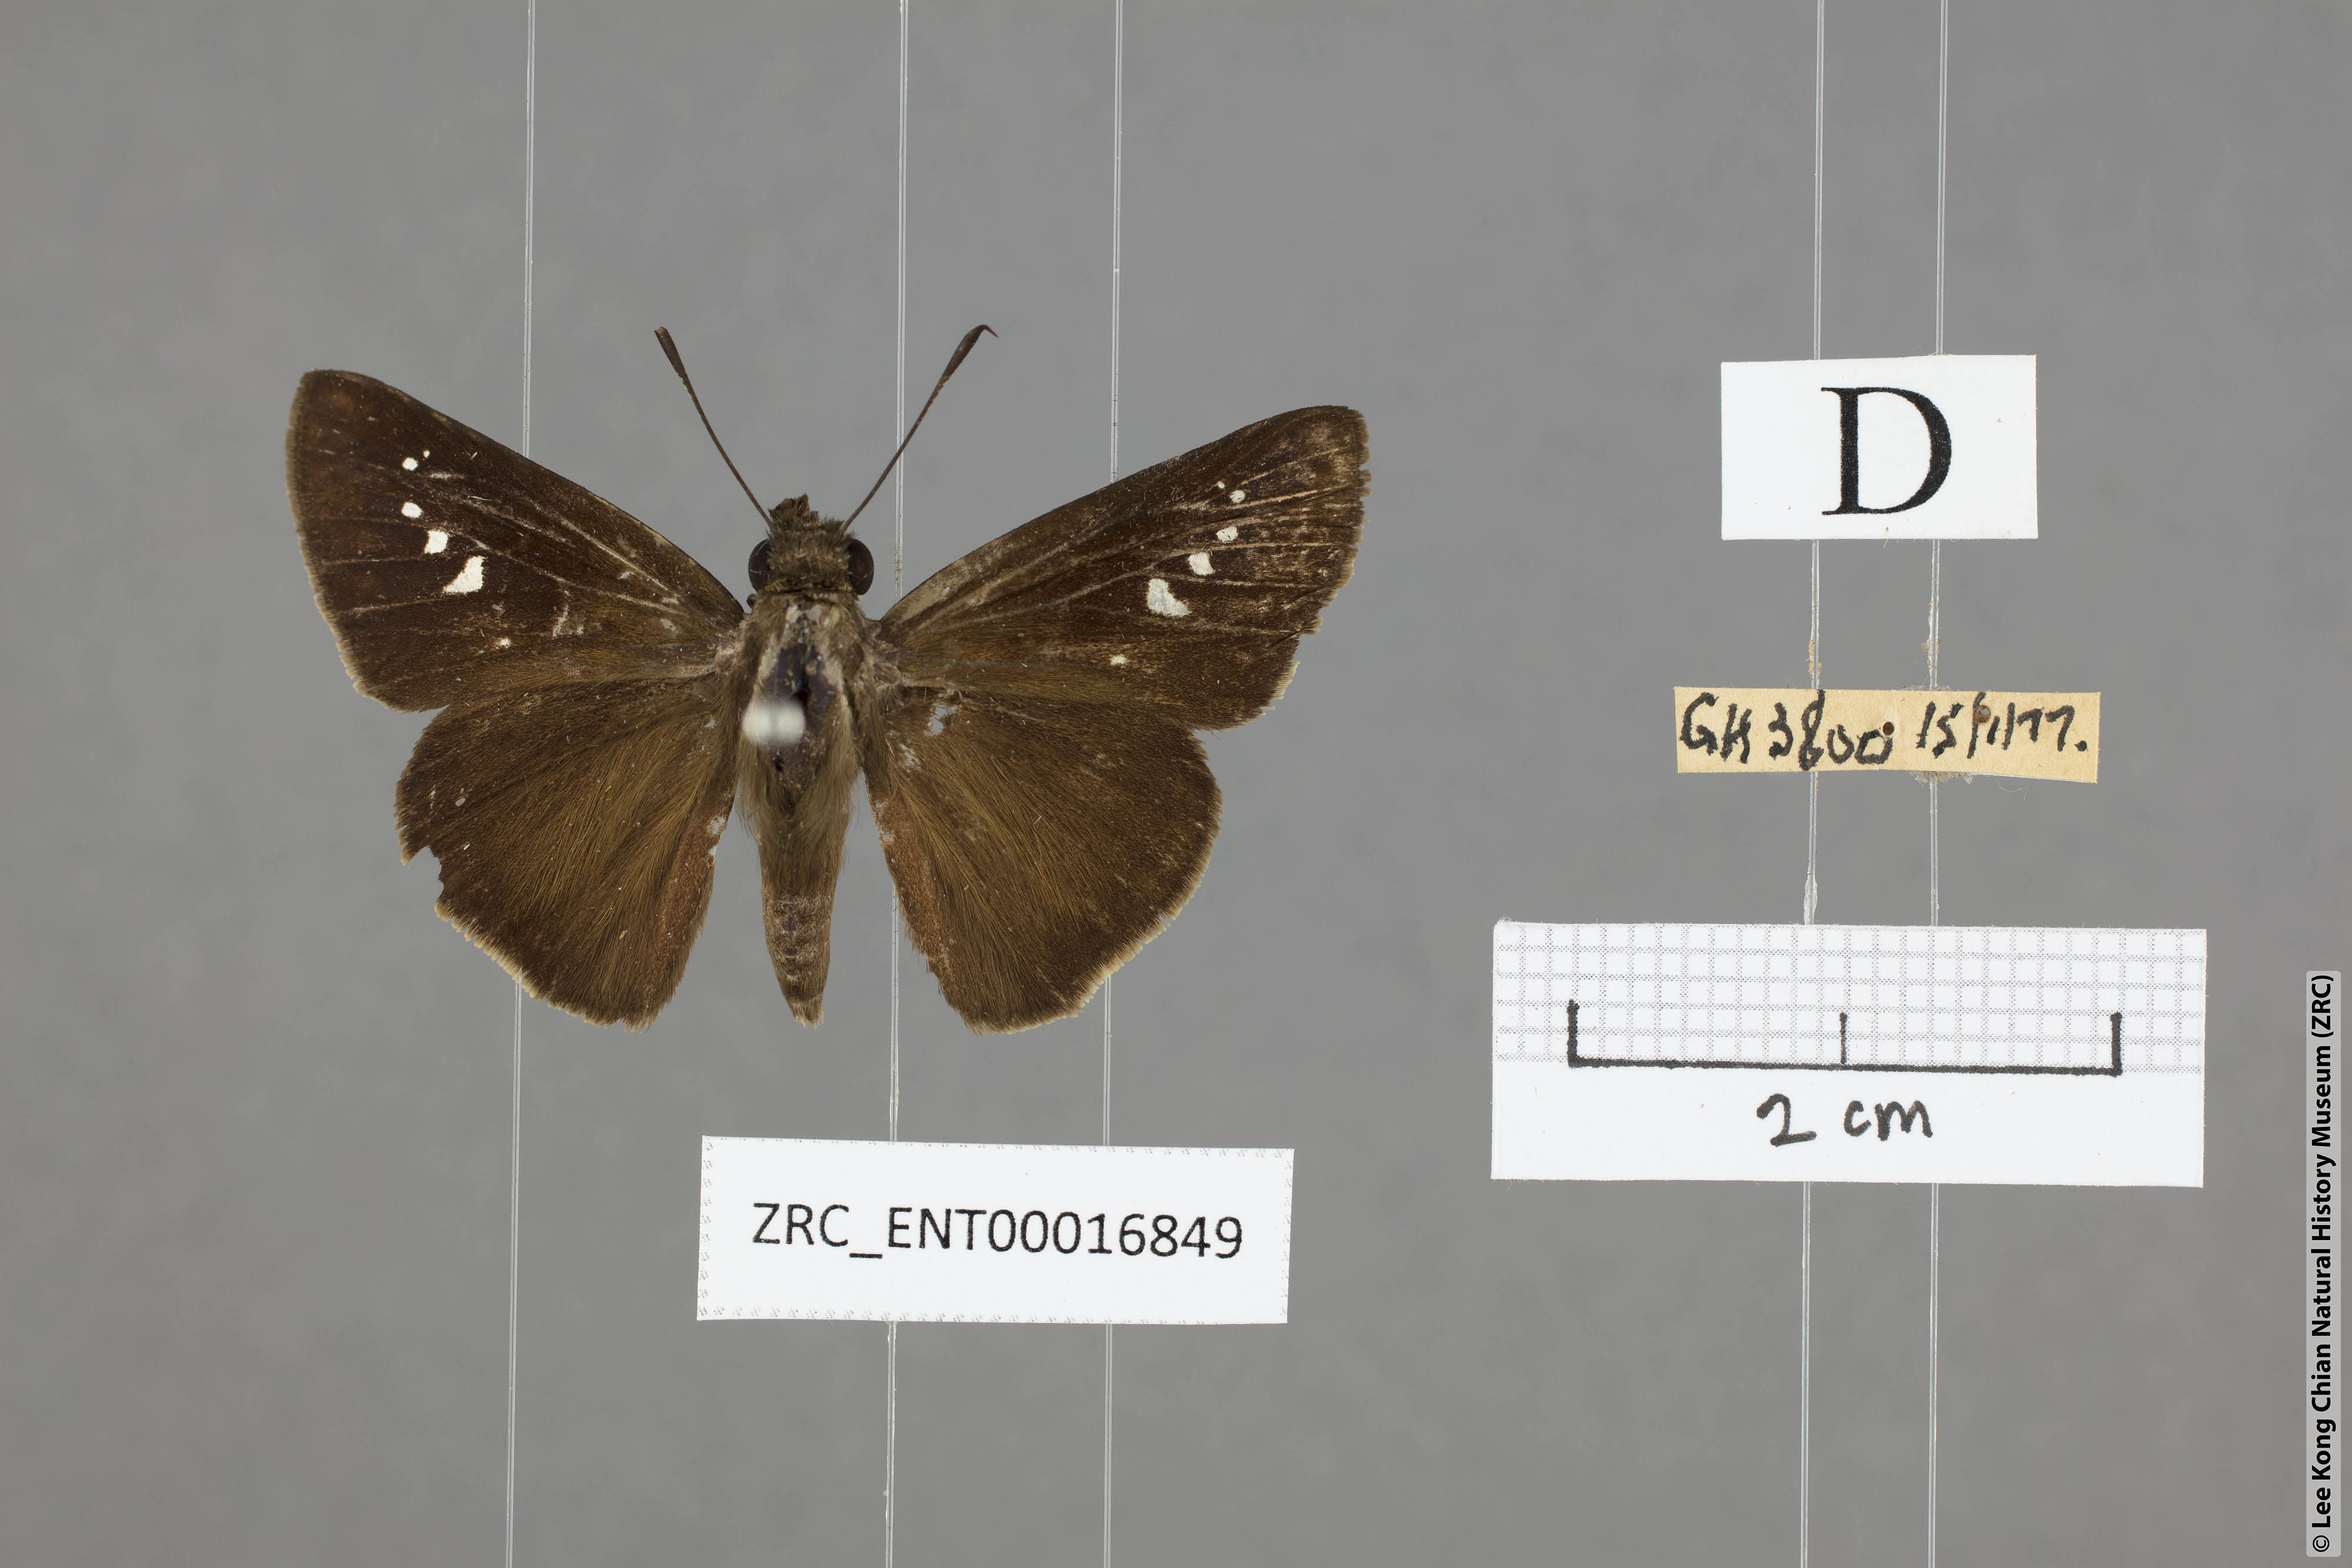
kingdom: Animalia
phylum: Arthropoda
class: Insecta
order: Lepidoptera
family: Hesperiidae
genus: Caltoris
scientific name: Caltoris plebeia
